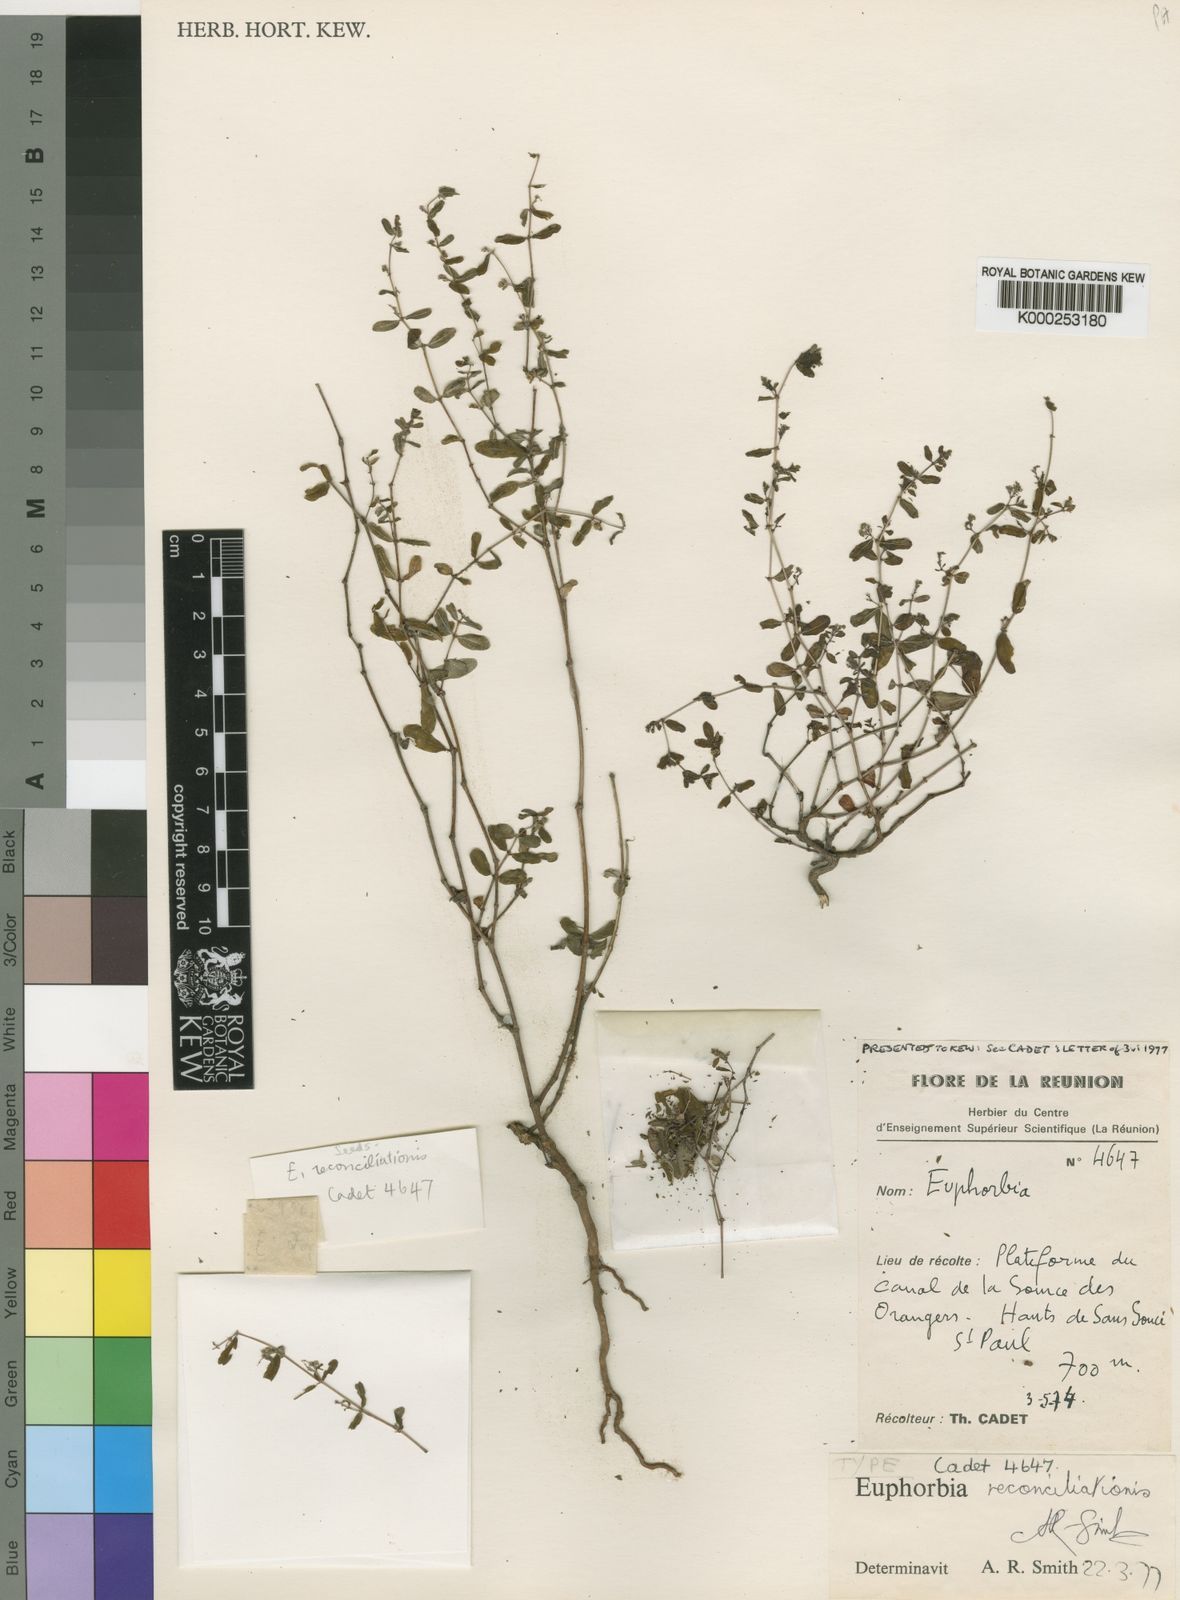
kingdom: Plantae
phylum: Tracheophyta
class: Magnoliopsida
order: Malpighiales
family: Euphorbiaceae
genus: Euphorbia
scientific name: Euphorbia reconciliationis
